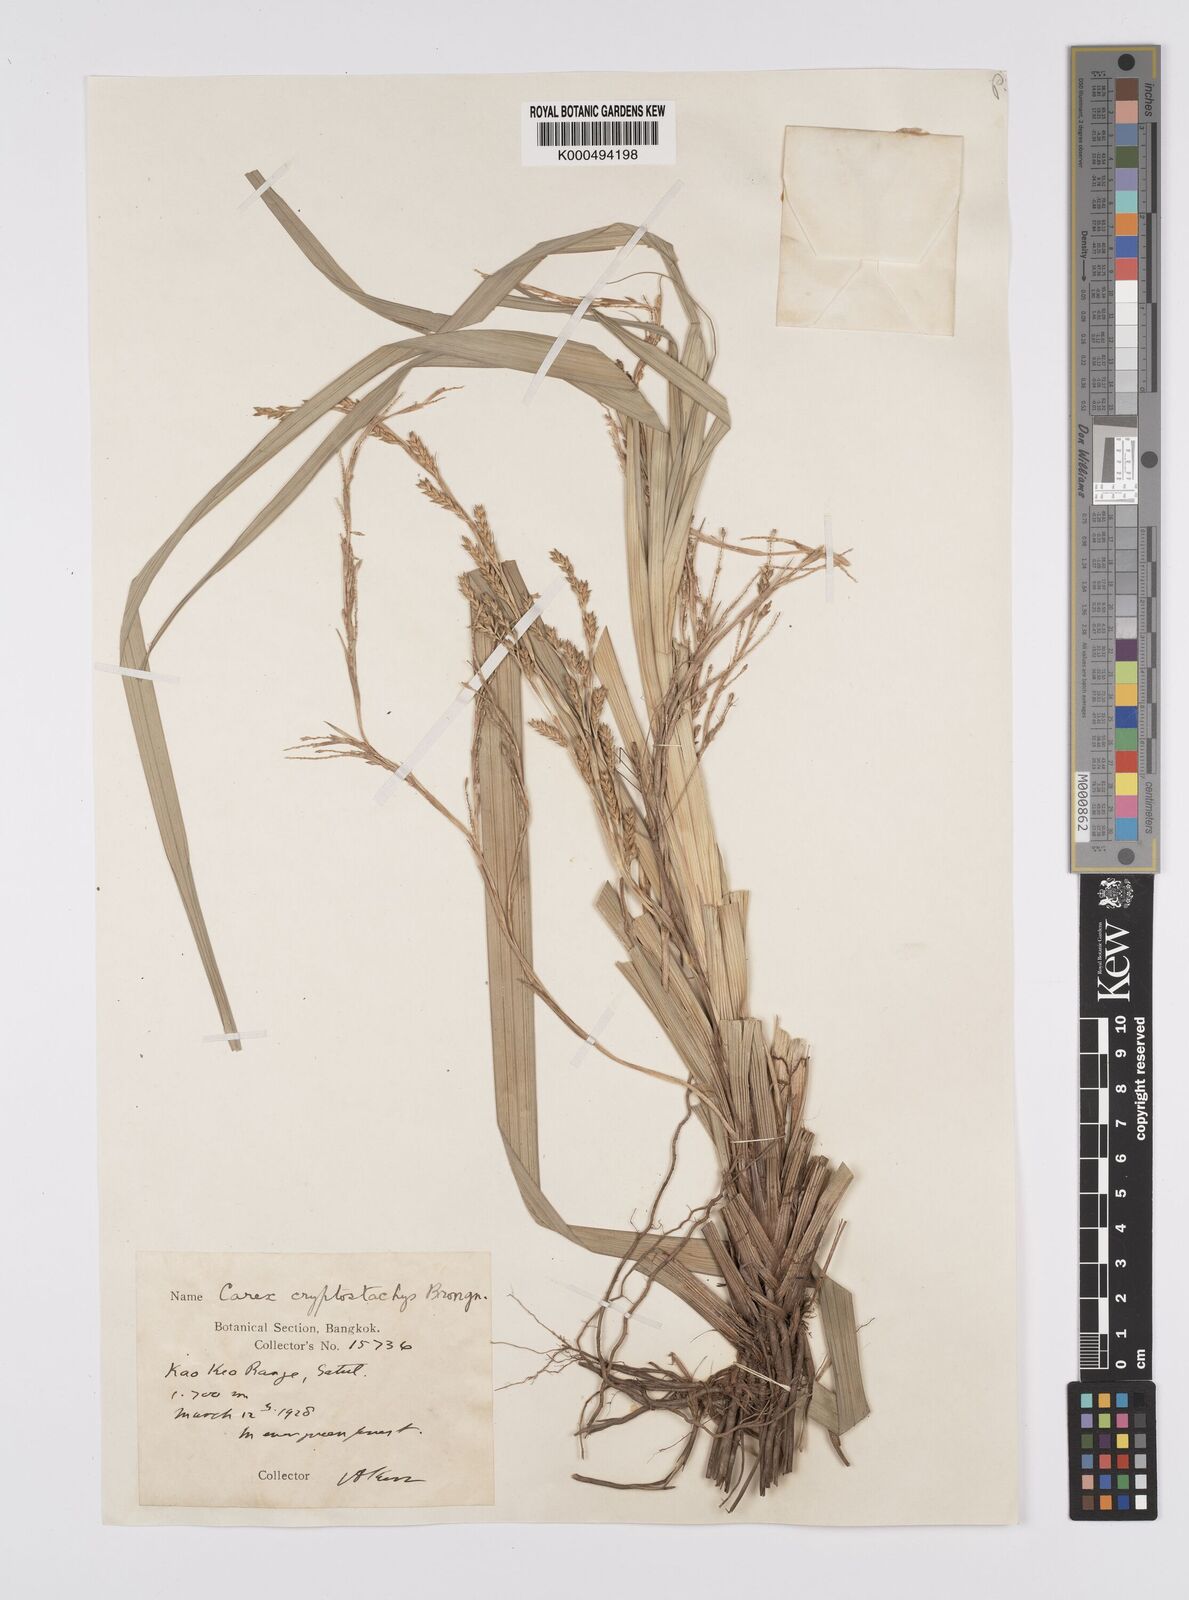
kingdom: Plantae
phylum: Tracheophyta
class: Liliopsida
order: Poales
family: Cyperaceae
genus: Carex
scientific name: Carex cryptostachys
